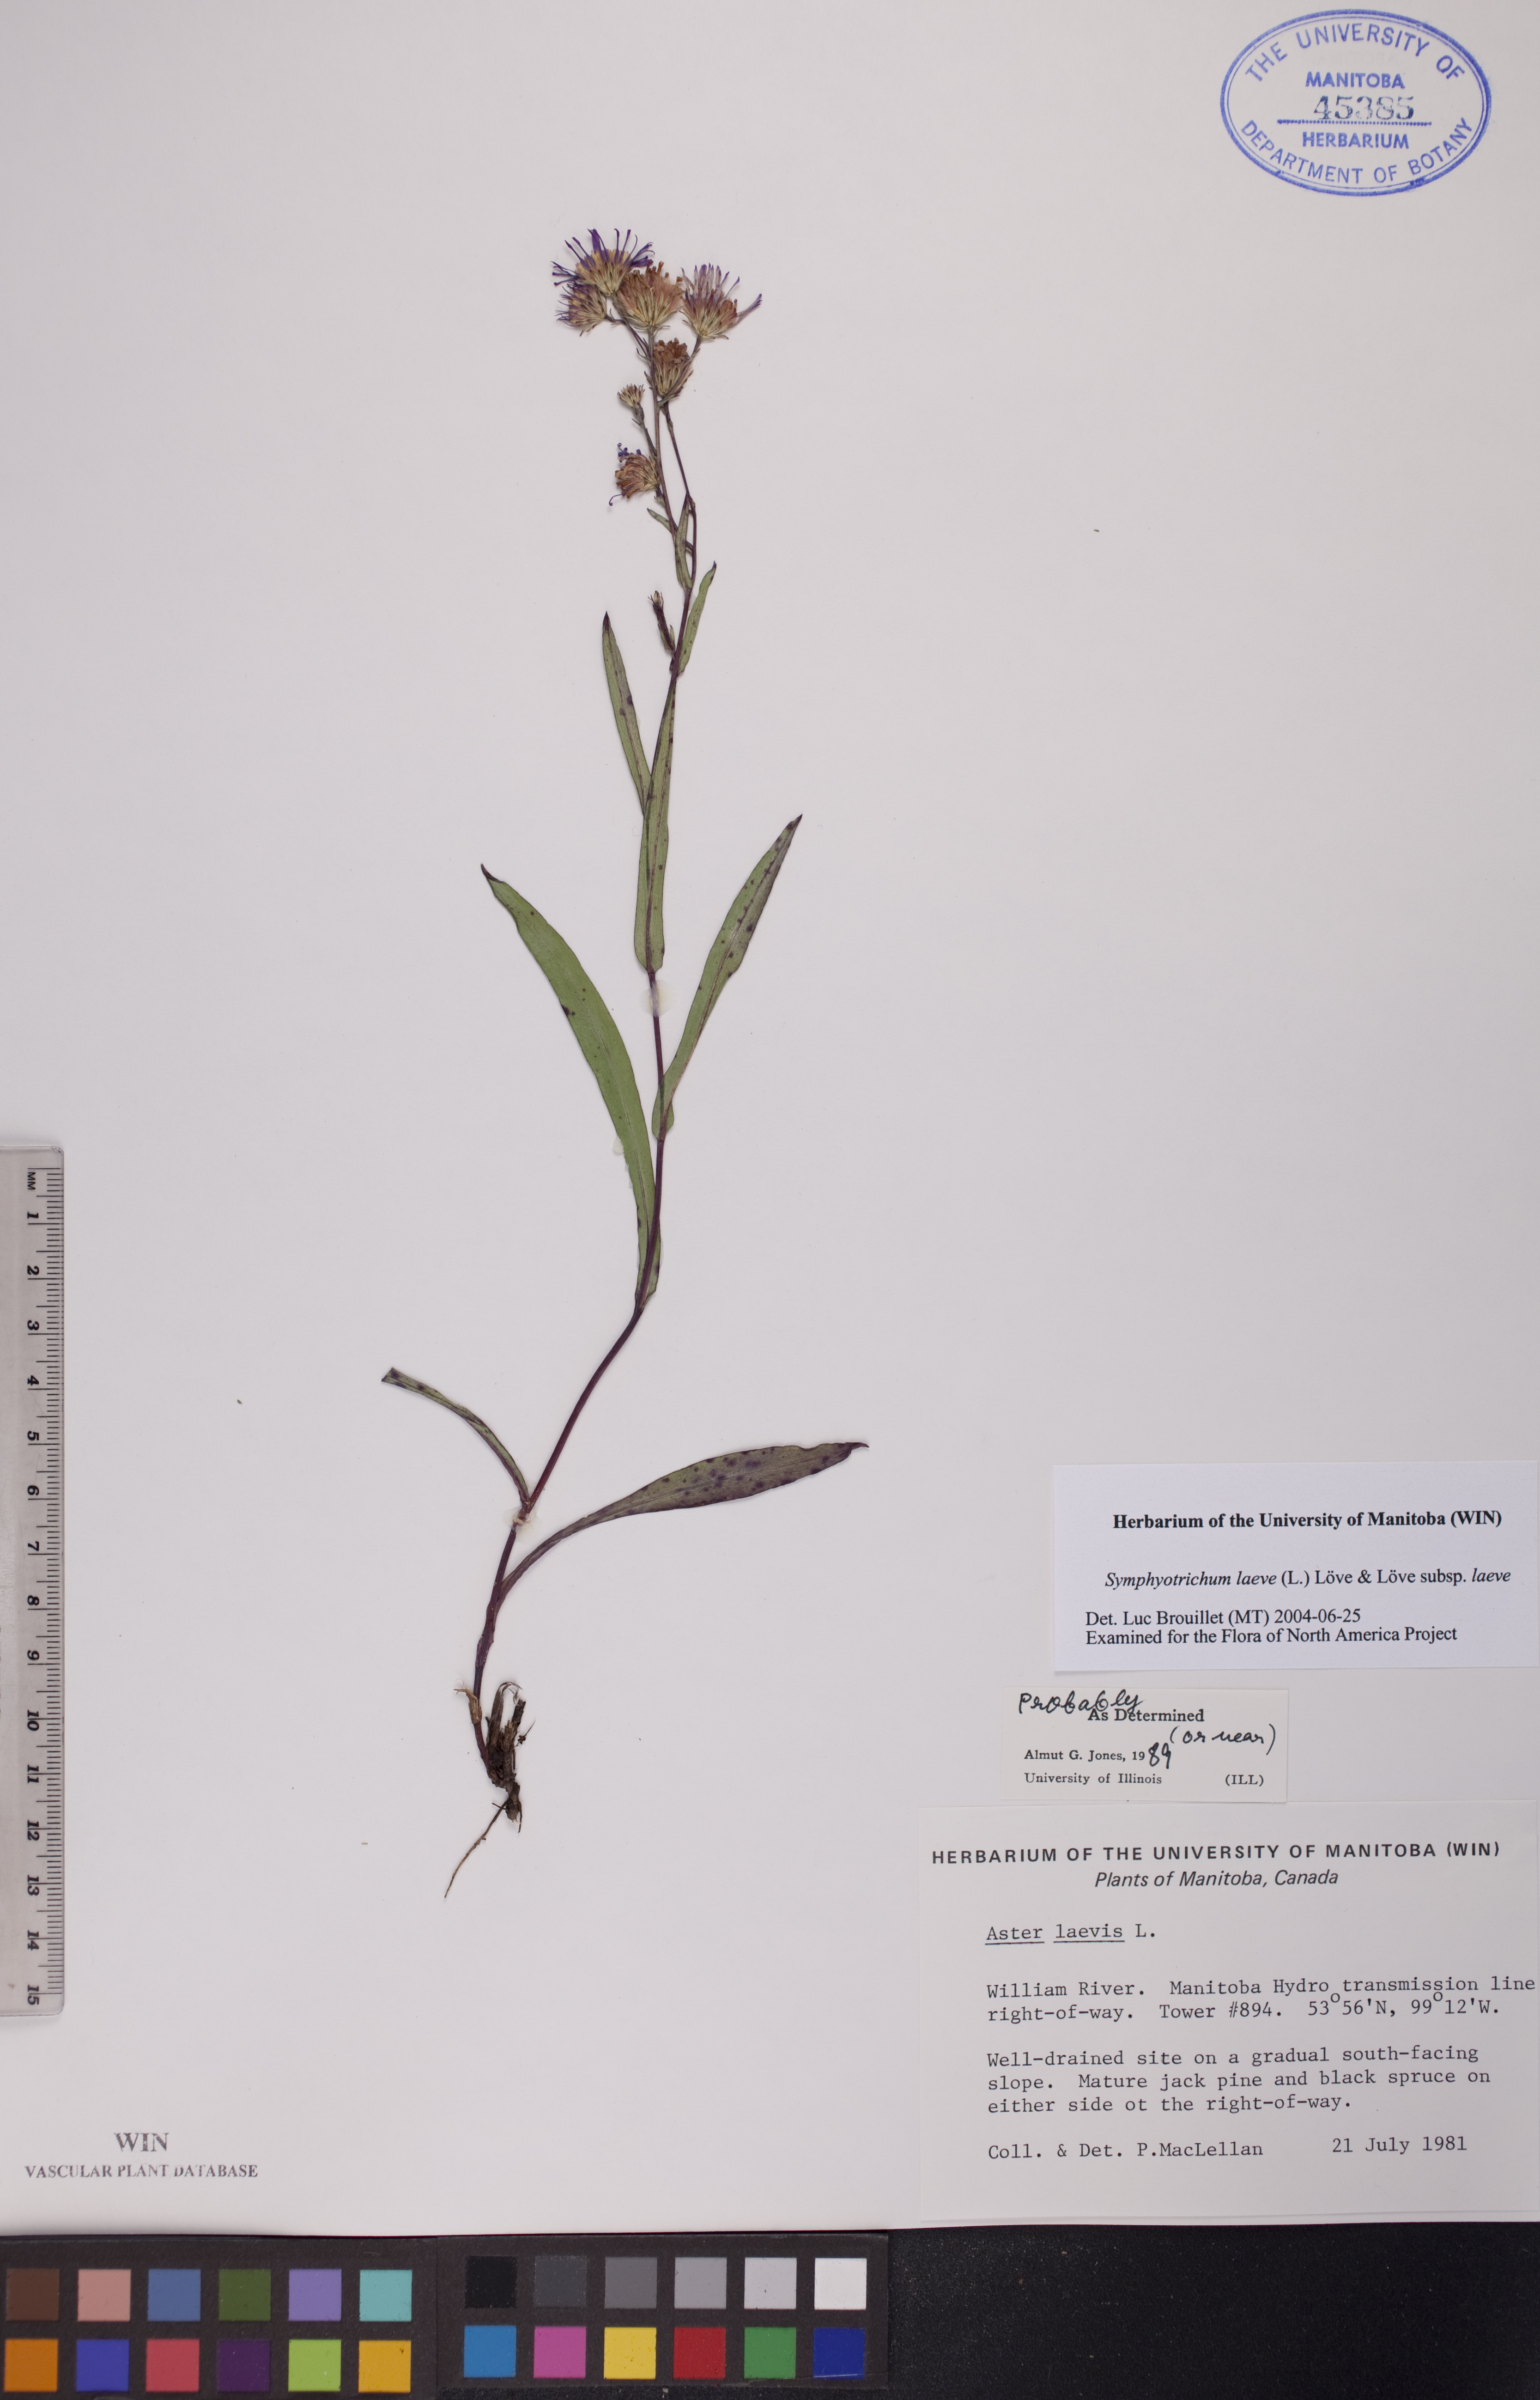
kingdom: Plantae
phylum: Tracheophyta
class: Magnoliopsida
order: Asterales
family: Asteraceae
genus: Symphyotrichum
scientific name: Symphyotrichum laeve
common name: Glaucous aster
